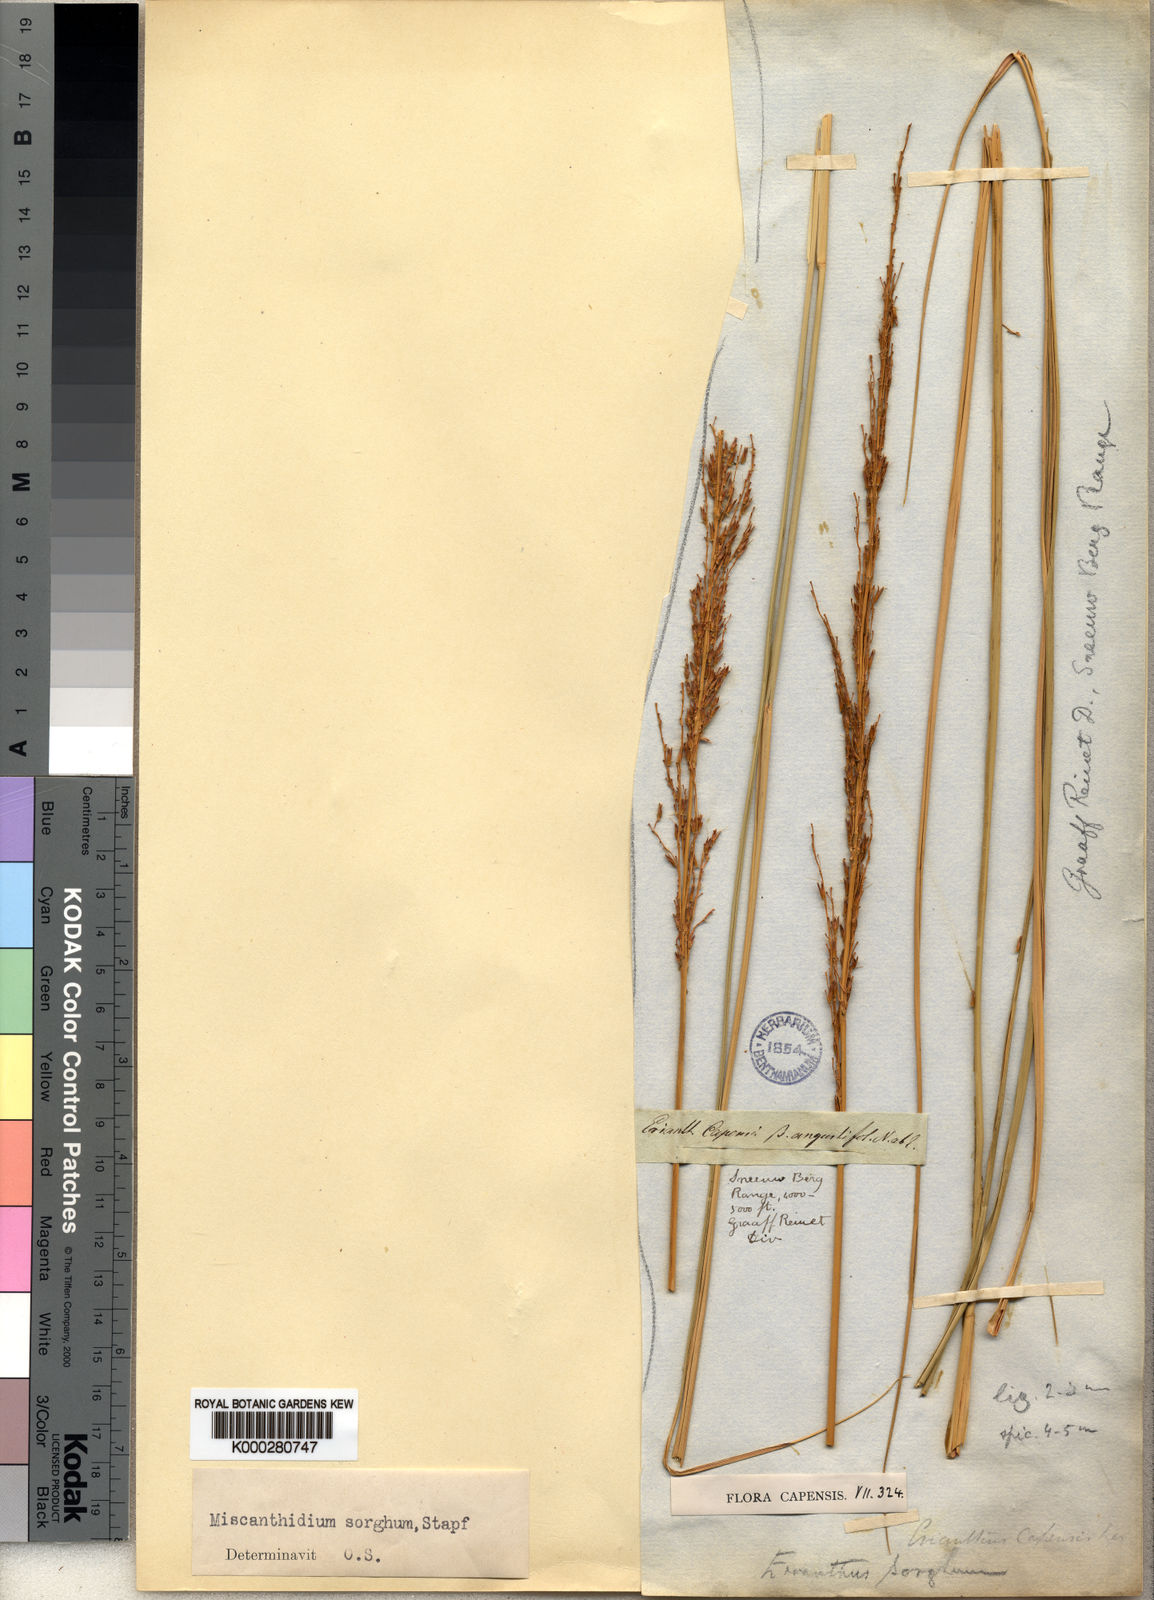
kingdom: Plantae
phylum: Tracheophyta
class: Liliopsida
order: Poales
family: Poaceae
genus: Miscanthus
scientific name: Miscanthus ecklonii
